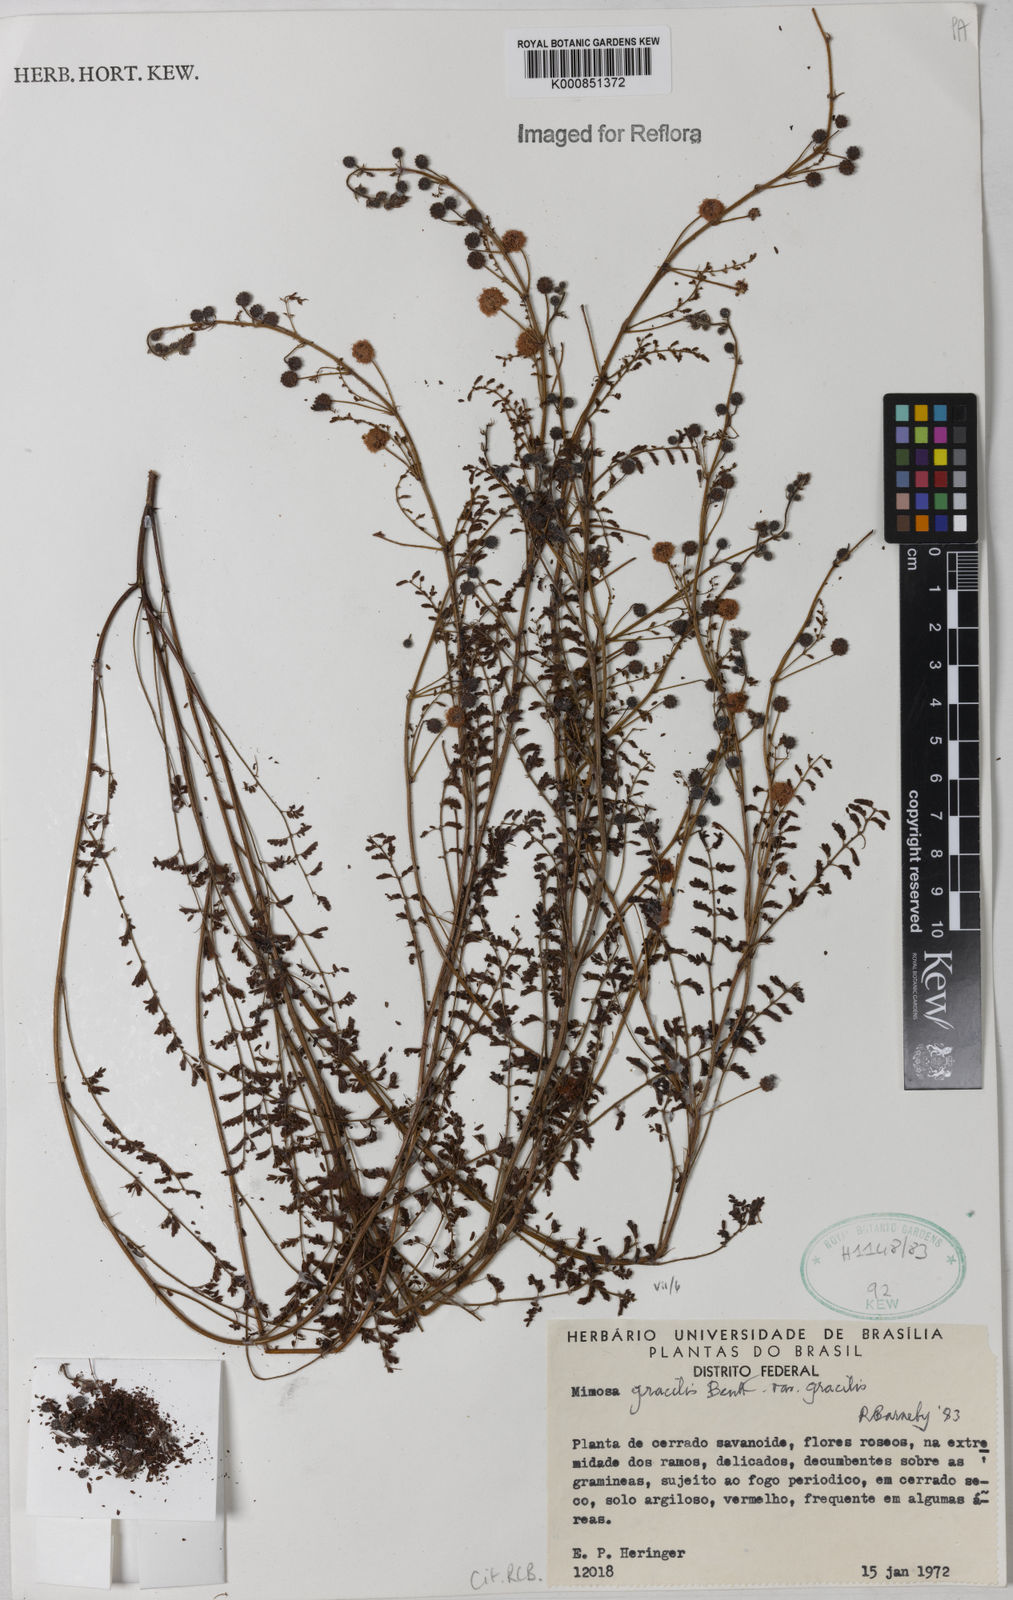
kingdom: Plantae
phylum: Tracheophyta
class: Magnoliopsida
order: Fabales
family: Fabaceae
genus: Mimosa
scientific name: Mimosa gracilis
